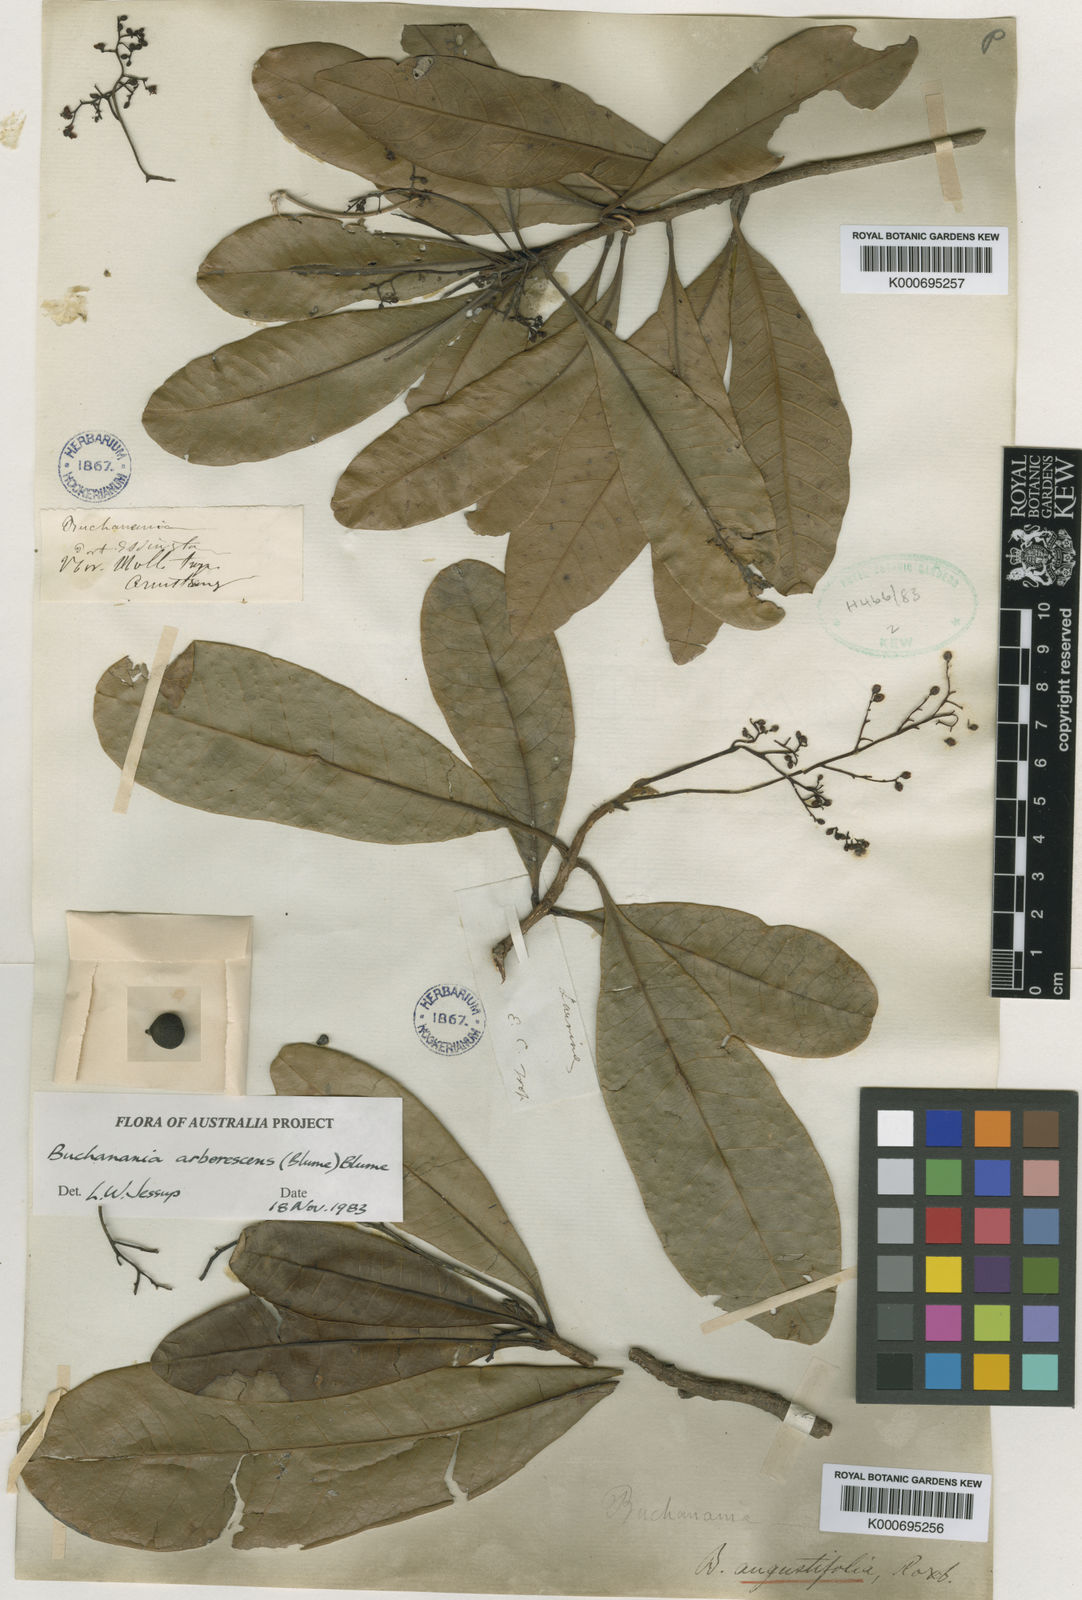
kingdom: Plantae
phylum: Tracheophyta
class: Magnoliopsida
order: Sapindales
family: Anacardiaceae
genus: Buchanania
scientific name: Buchanania arborescens
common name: Sparrow’s mango
